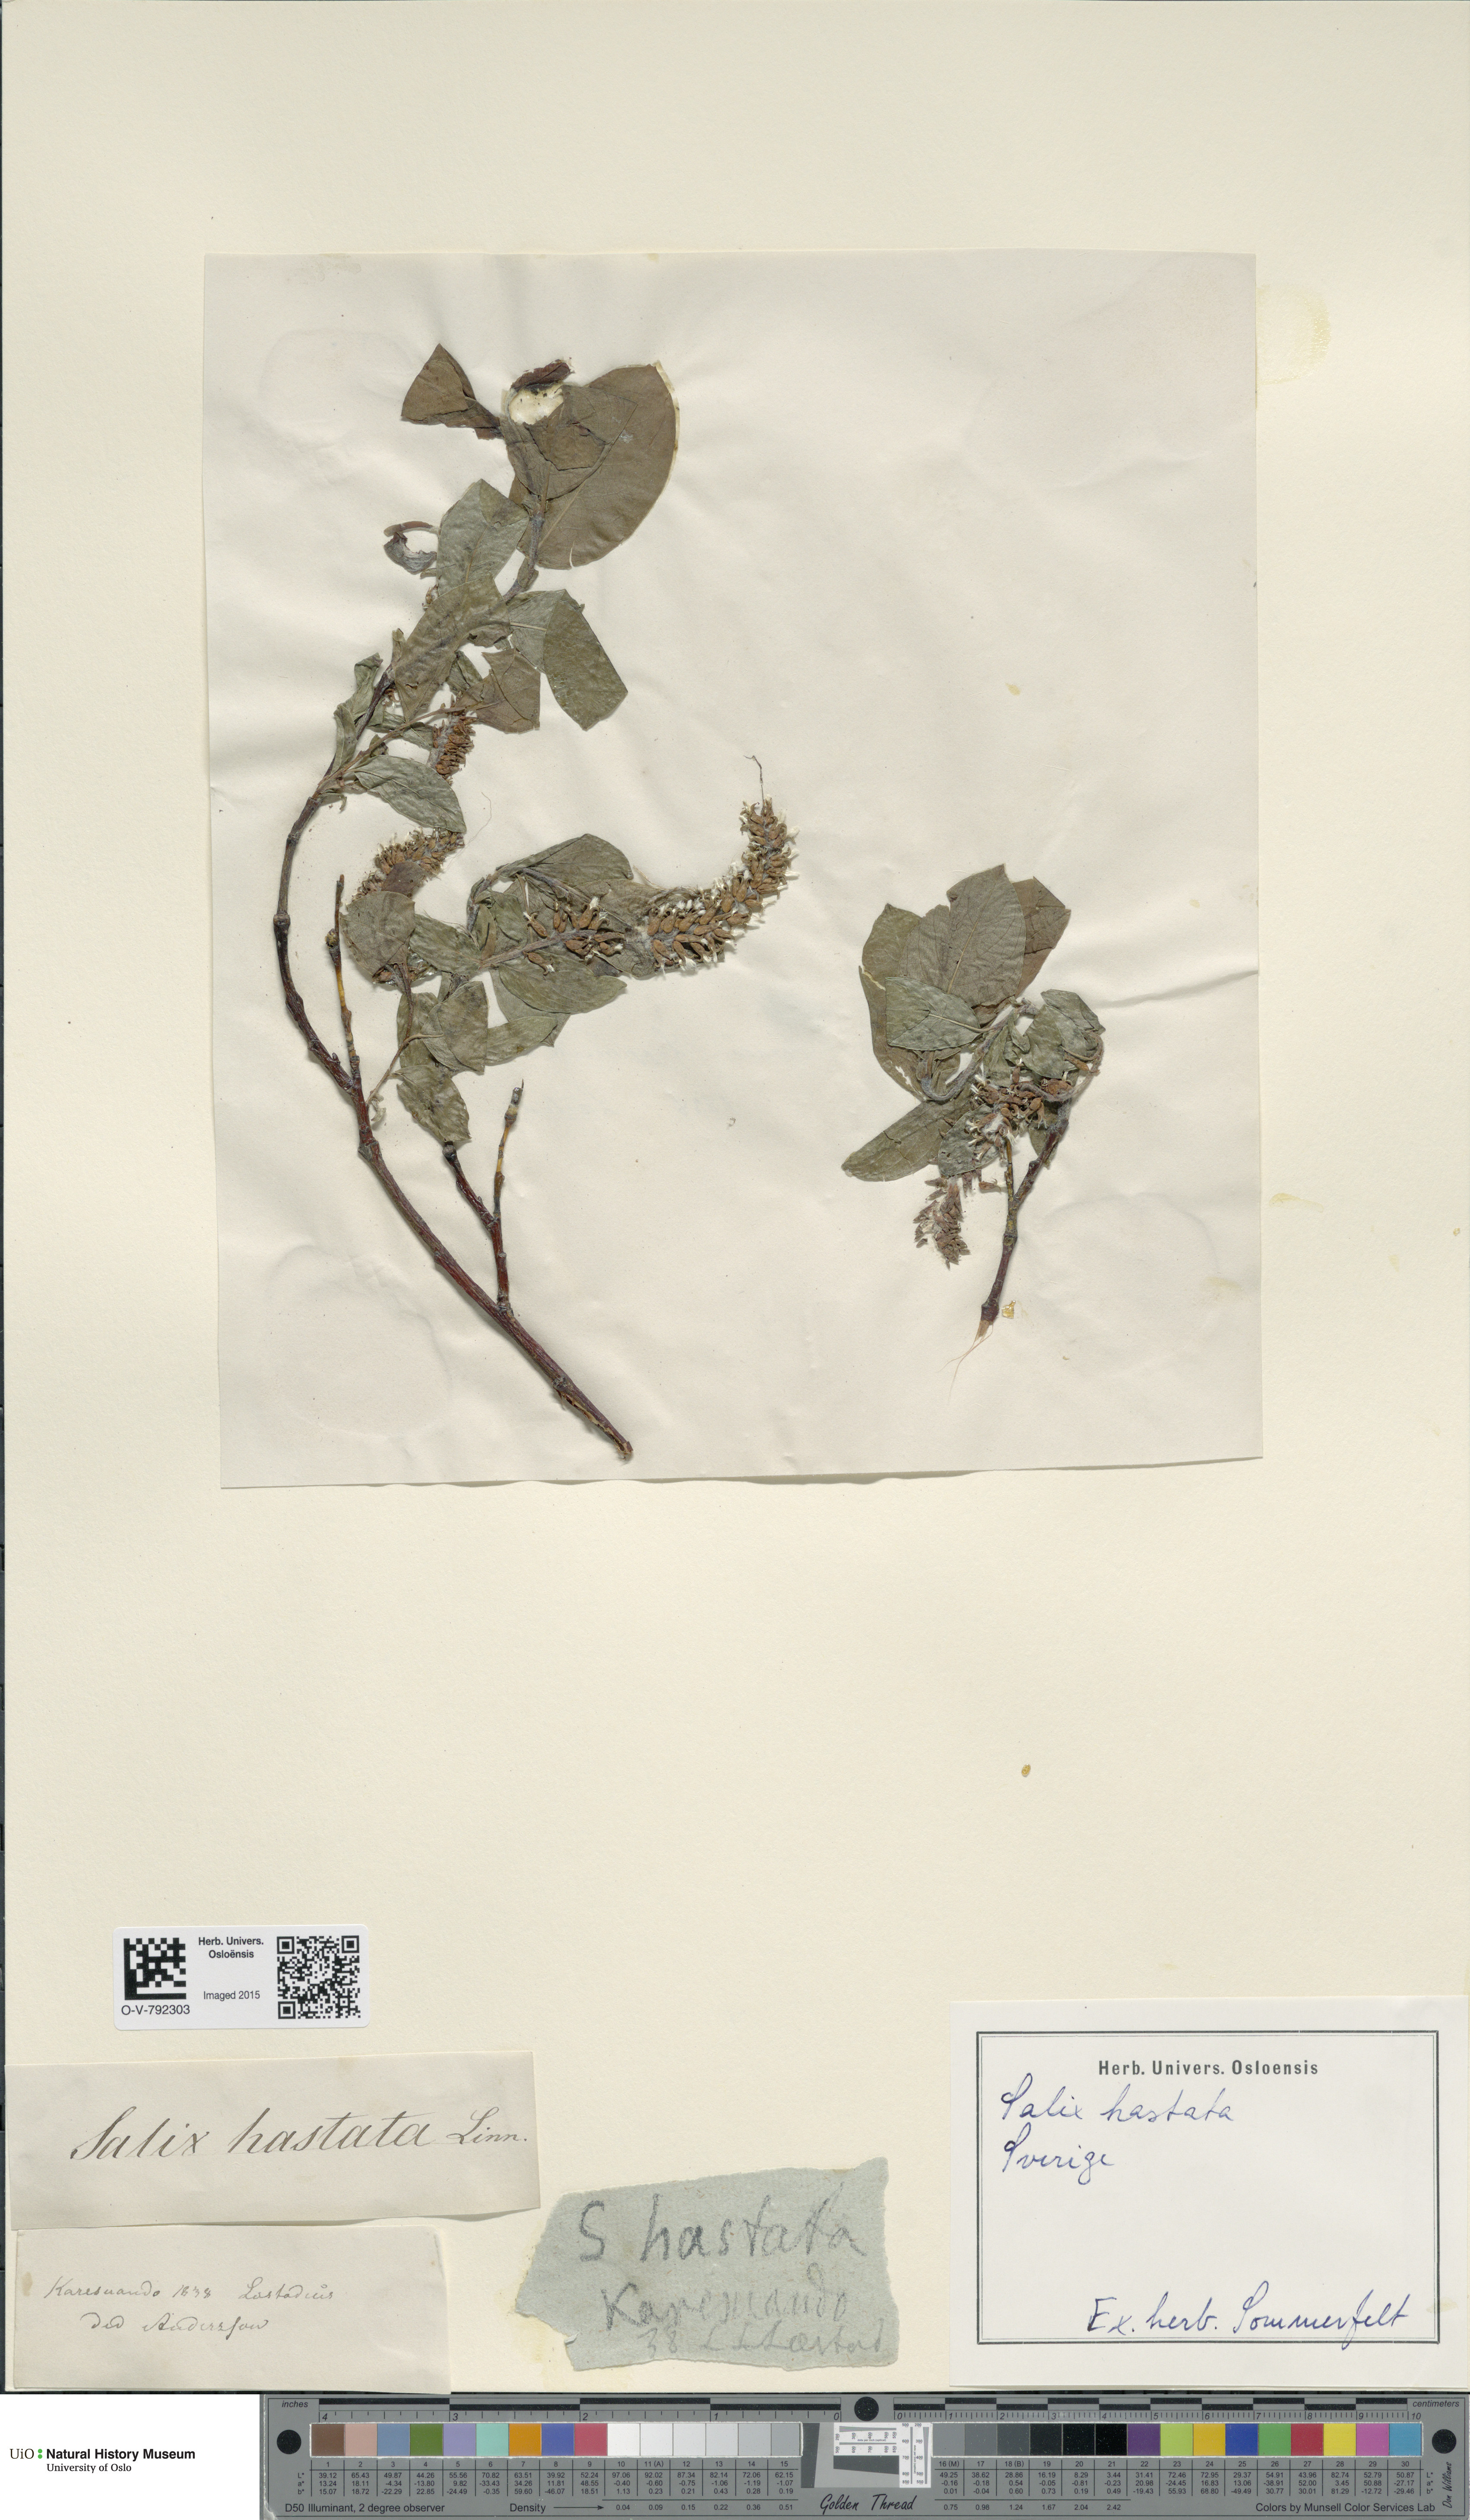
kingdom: Plantae
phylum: Tracheophyta
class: Magnoliopsida
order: Malpighiales
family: Salicaceae
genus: Salix
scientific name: Salix hastata
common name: Halberd willow
